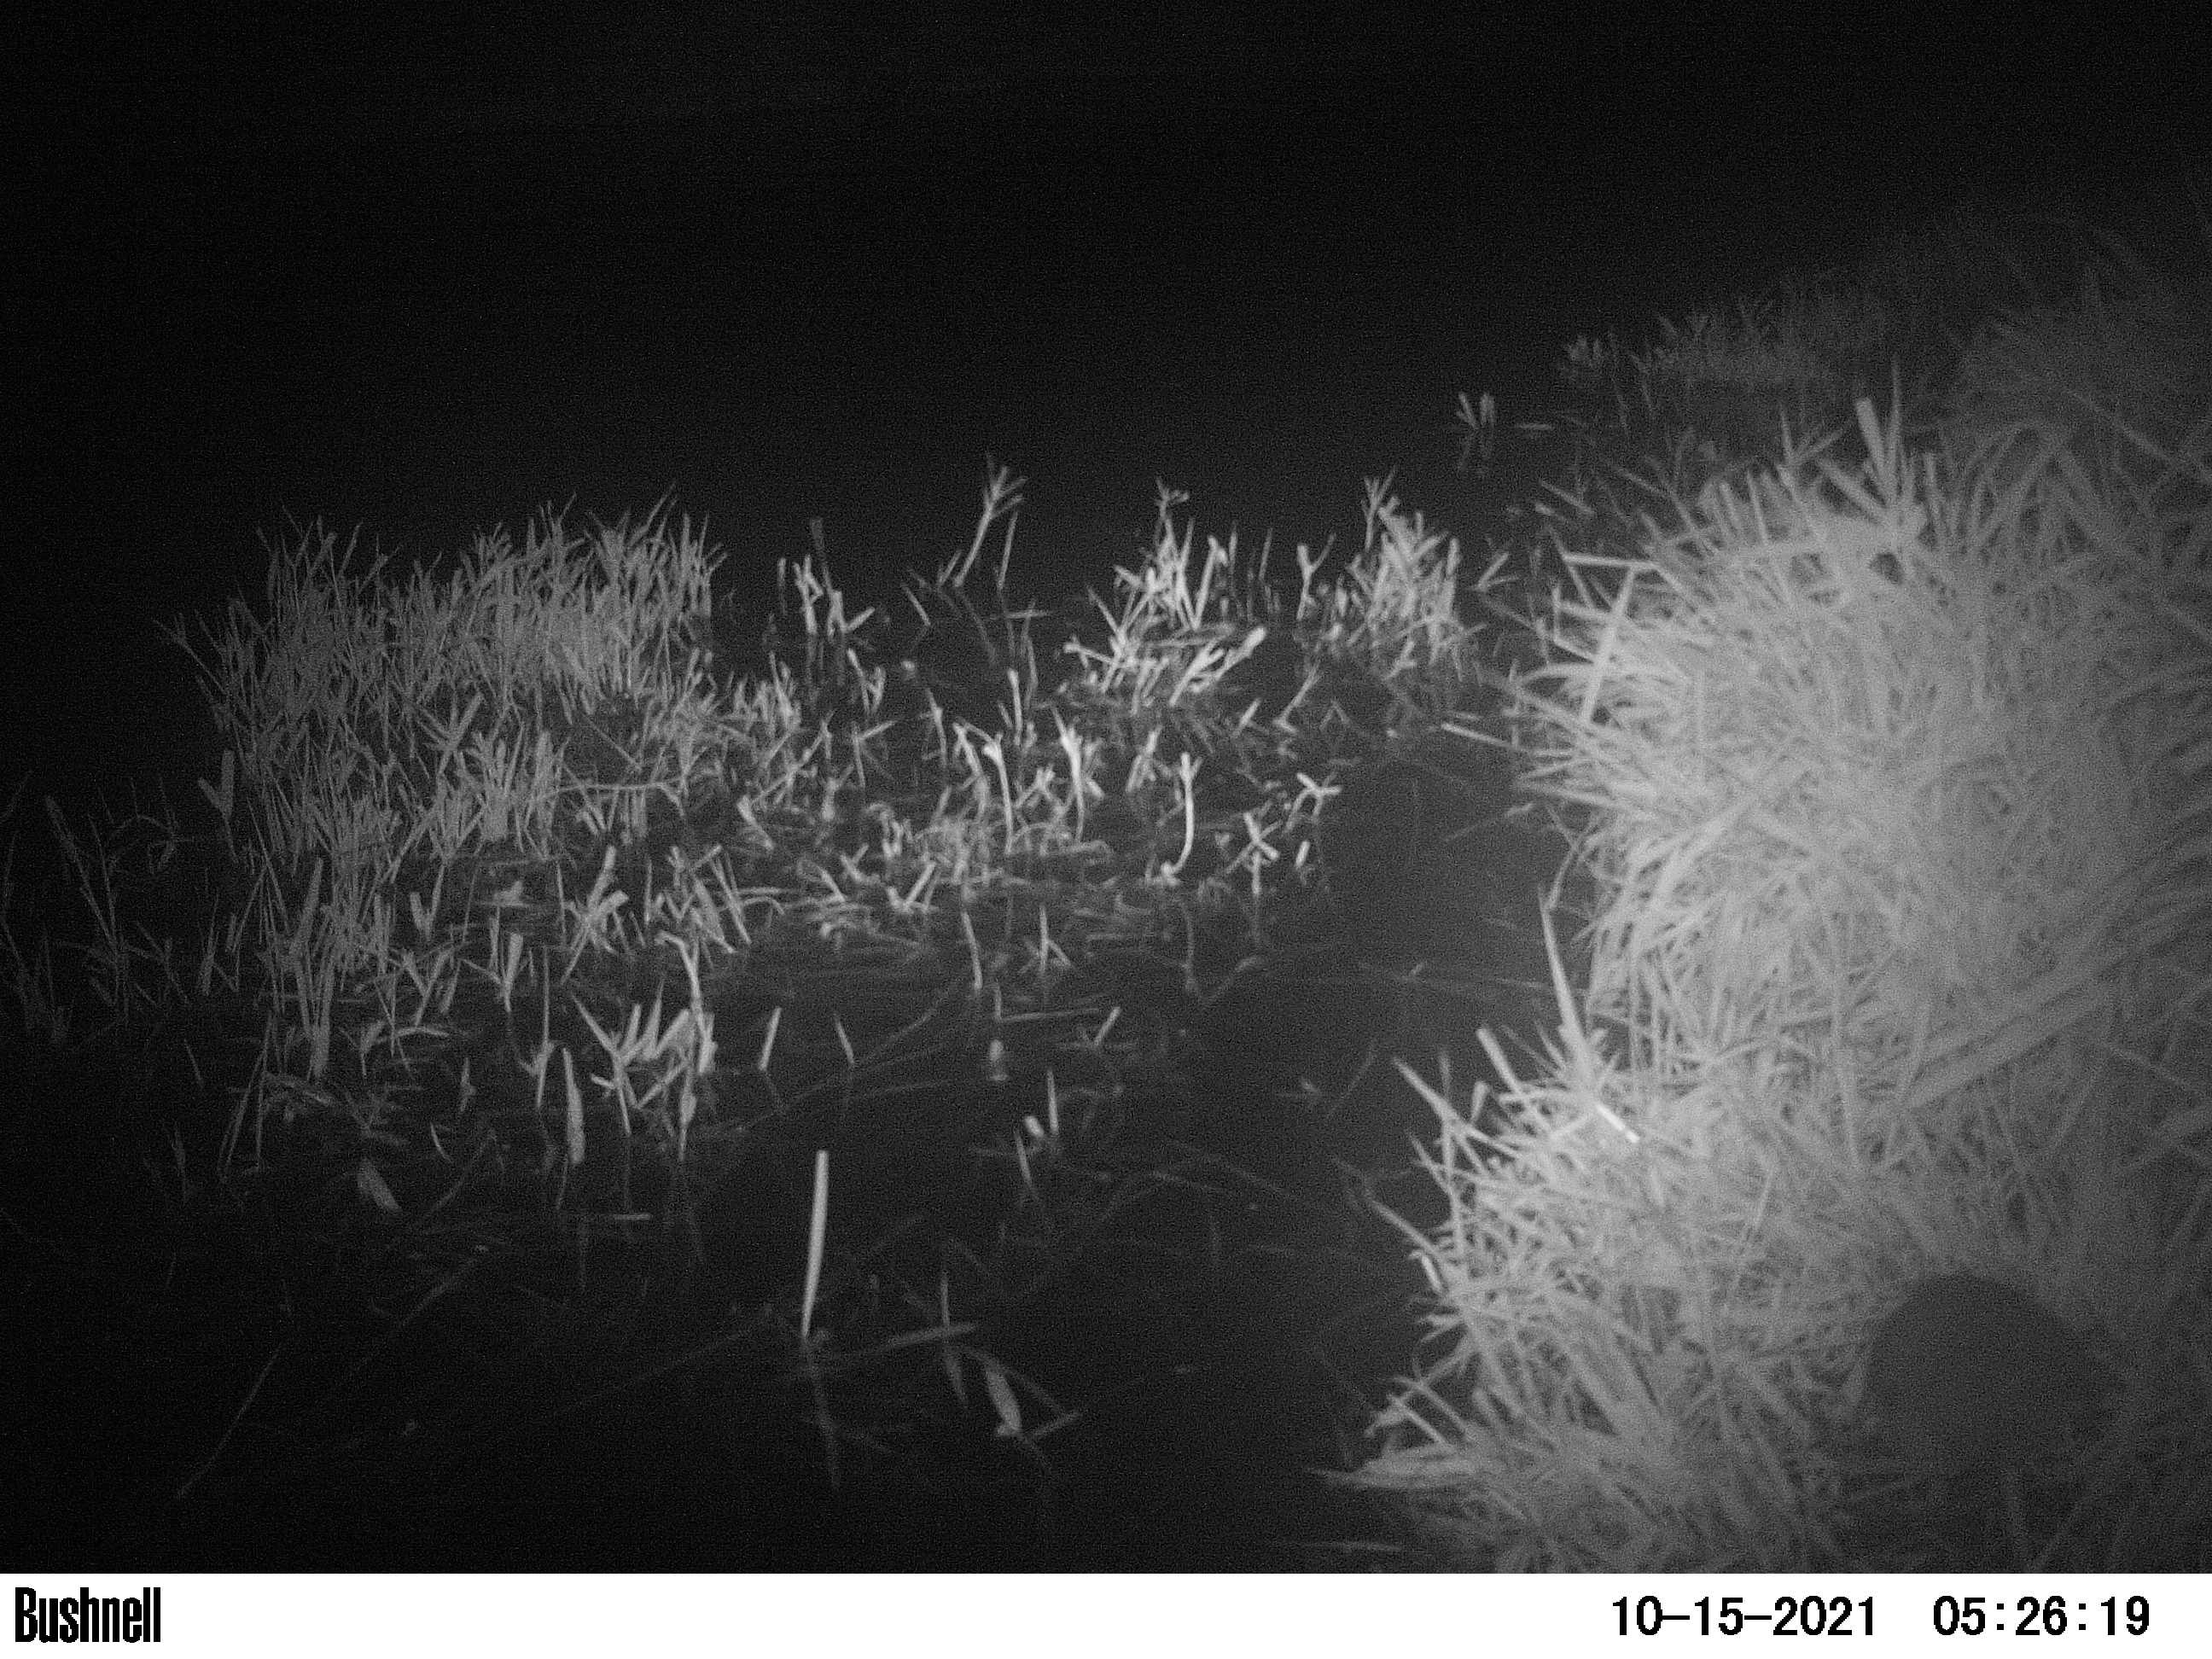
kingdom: Animalia
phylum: Chordata
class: Mammalia
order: Rodentia
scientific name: Rodentia
